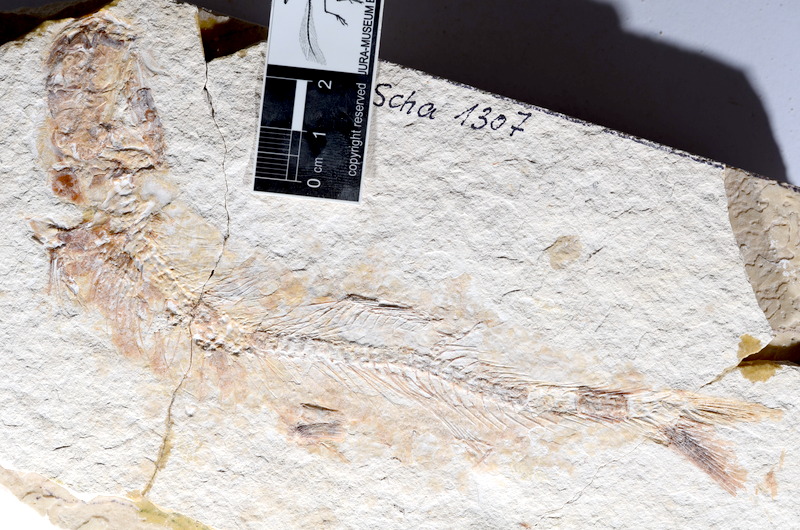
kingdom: Animalia
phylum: Chordata
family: Ascalaboidae
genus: Tharsis
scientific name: Tharsis dubius
